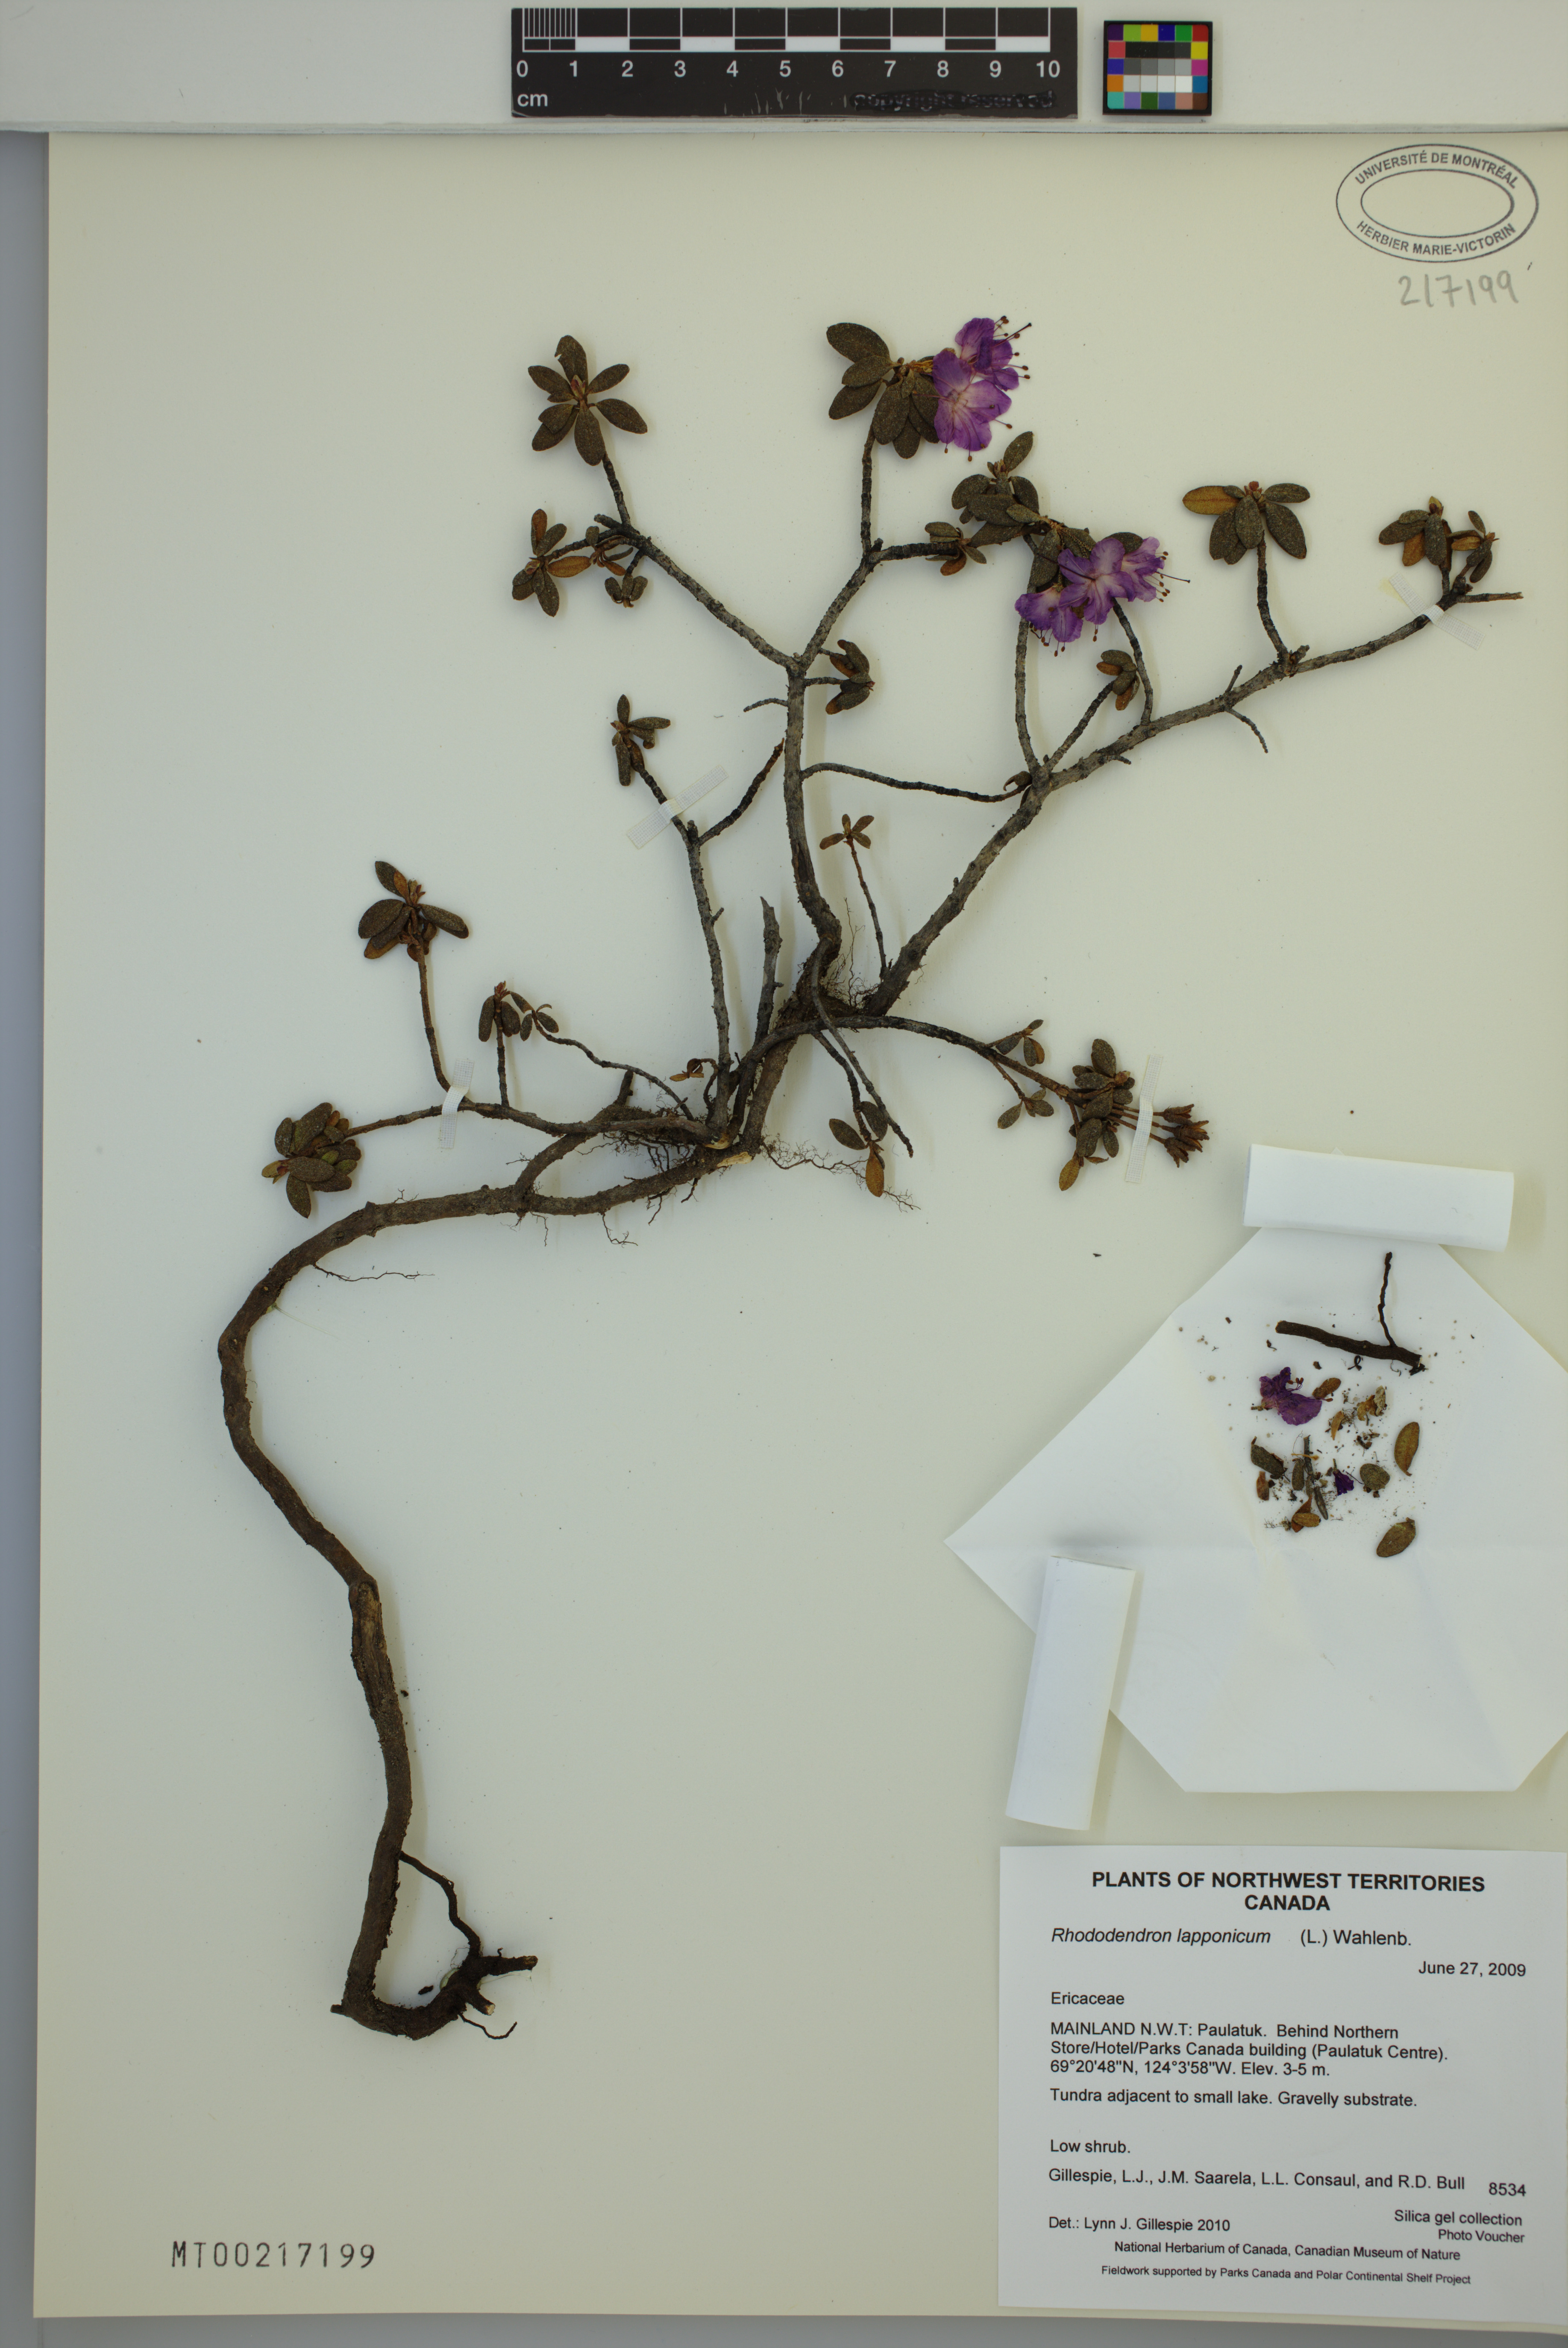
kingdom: Plantae
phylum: Tracheophyta
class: Magnoliopsida
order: Ericales
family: Ericaceae
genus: Rhododendron
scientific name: Rhododendron lapponicum
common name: Lapland rhododendron
